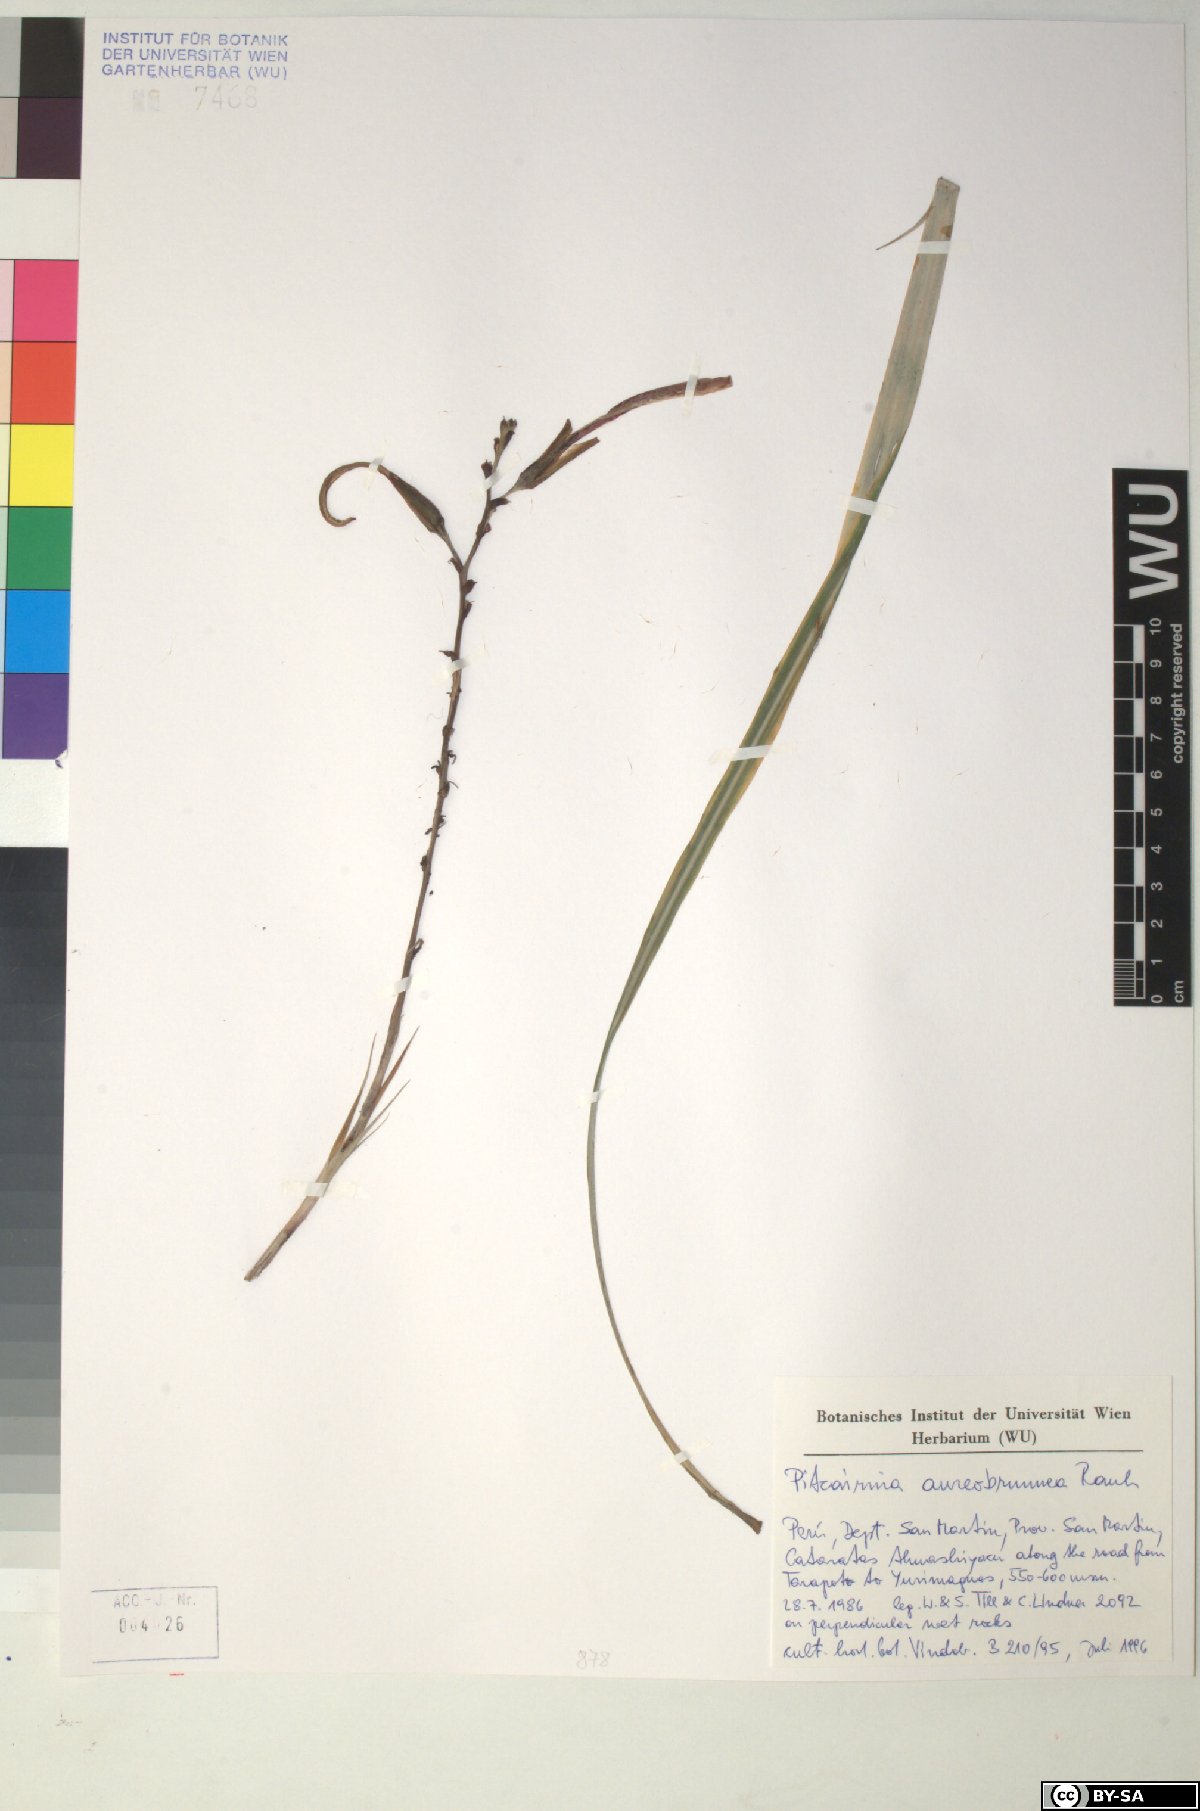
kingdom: Plantae
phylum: Tracheophyta
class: Liliopsida
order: Poales
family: Bromeliaceae
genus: Pitcairnia
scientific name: Pitcairnia aureobrunnea
